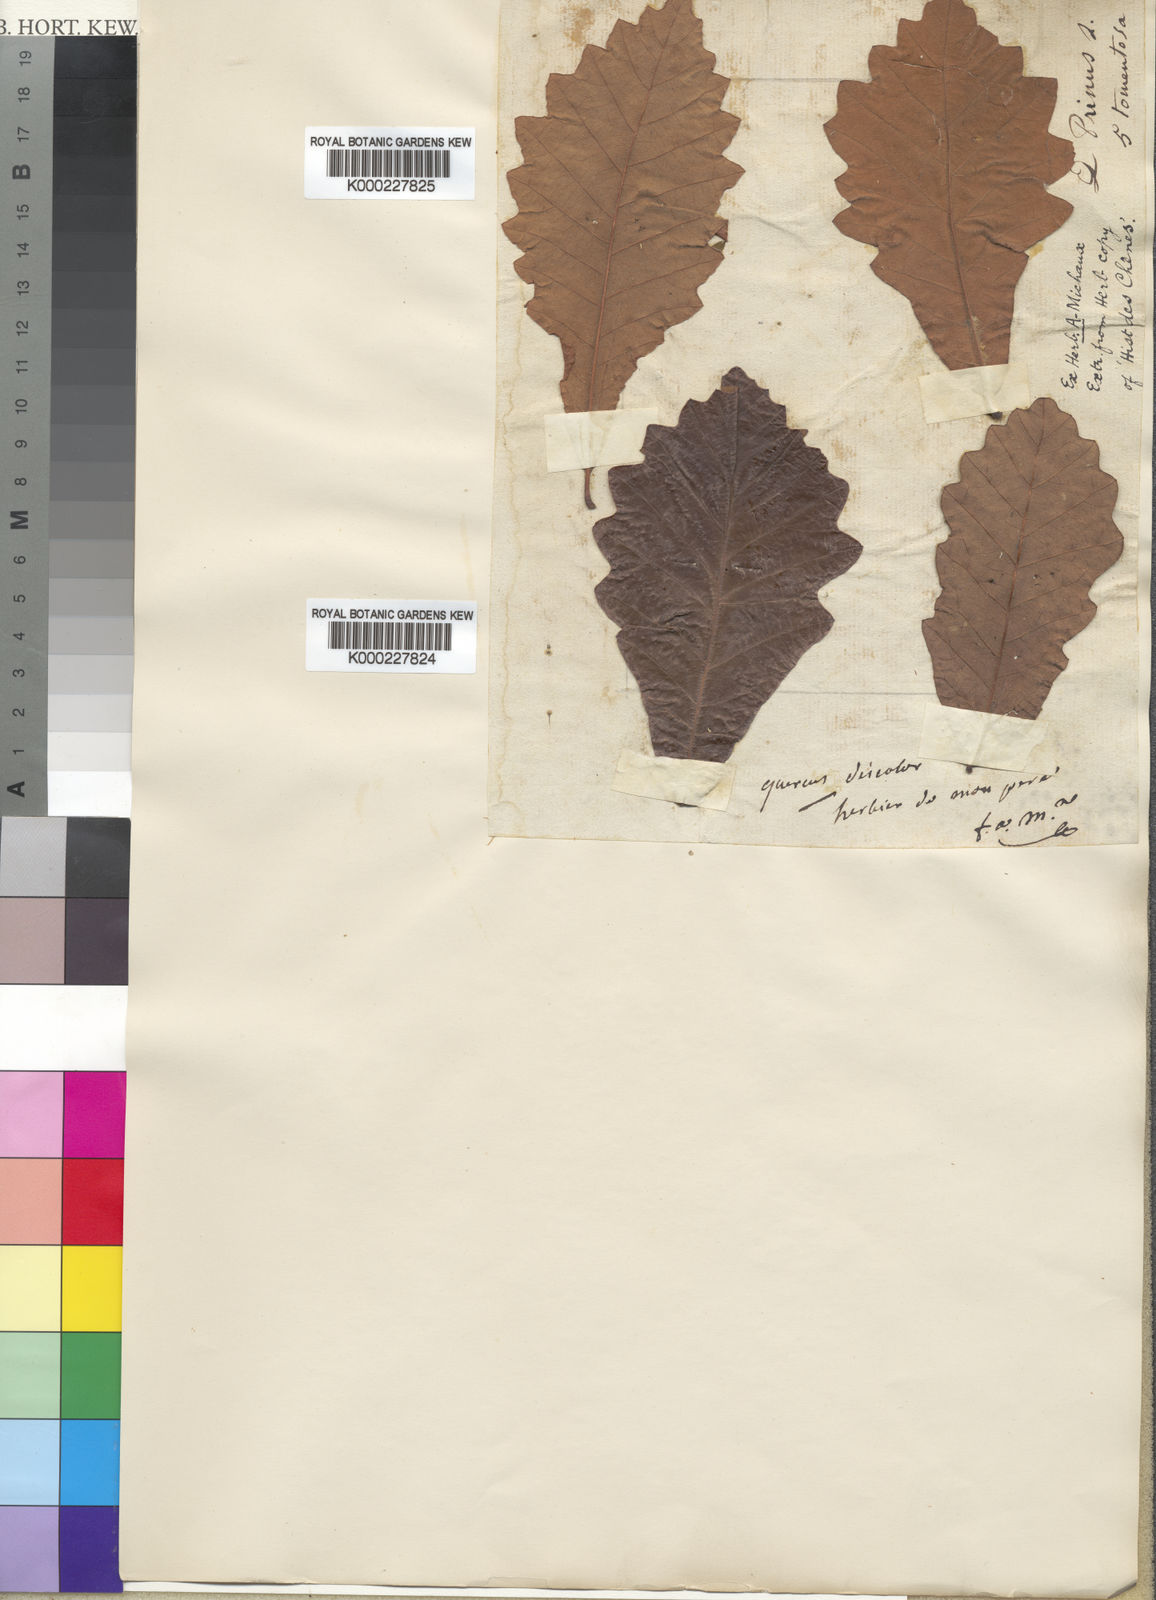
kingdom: Plantae
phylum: Tracheophyta
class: Magnoliopsida
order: Fagales
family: Fagaceae
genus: Quercus
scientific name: Quercus bicolor
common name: Swamp white oak
